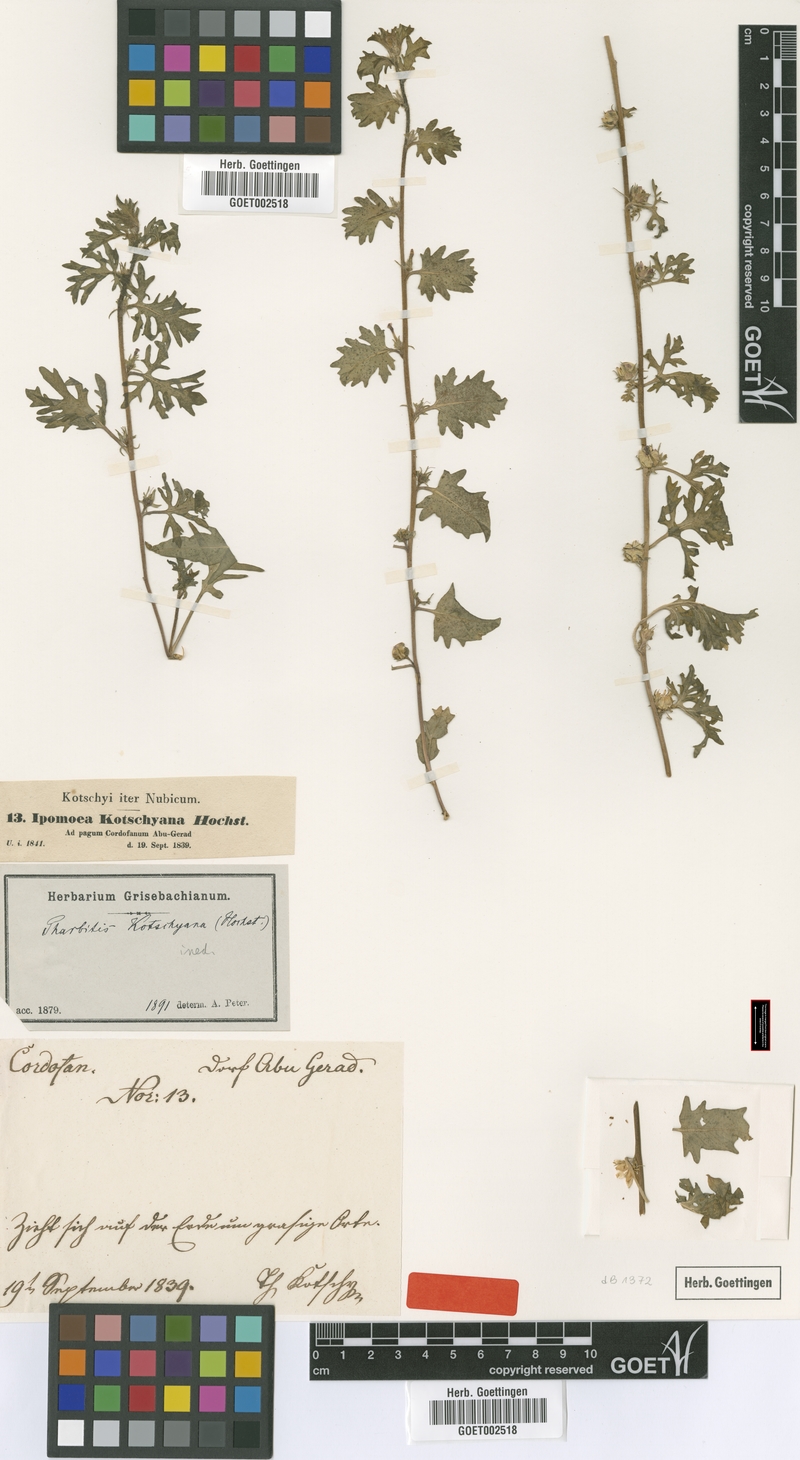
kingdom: Plantae
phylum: Tracheophyta
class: Magnoliopsida
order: Solanales
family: Convolvulaceae
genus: Ipomoea
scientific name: Ipomoea kotschyana
